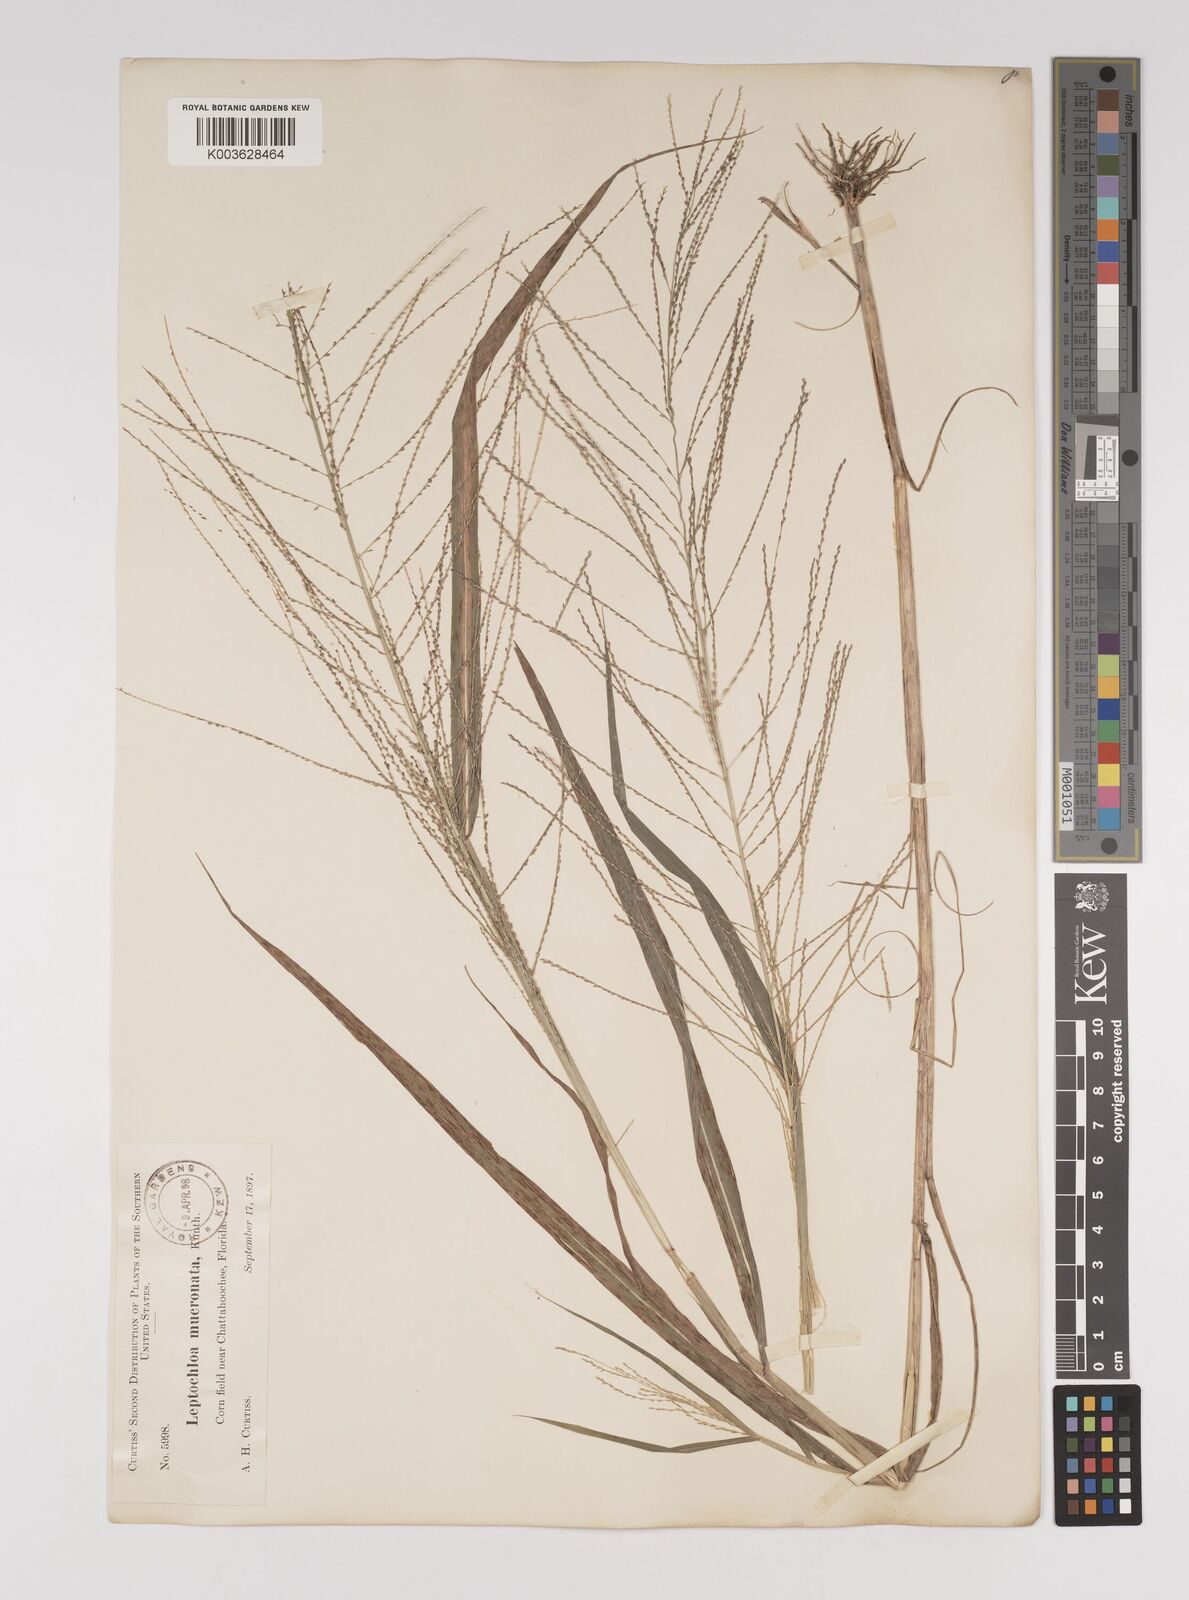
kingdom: Plantae
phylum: Tracheophyta
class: Liliopsida
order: Poales
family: Poaceae
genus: Leptochloa
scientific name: Leptochloa panicea
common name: Mucronate sprangletop
